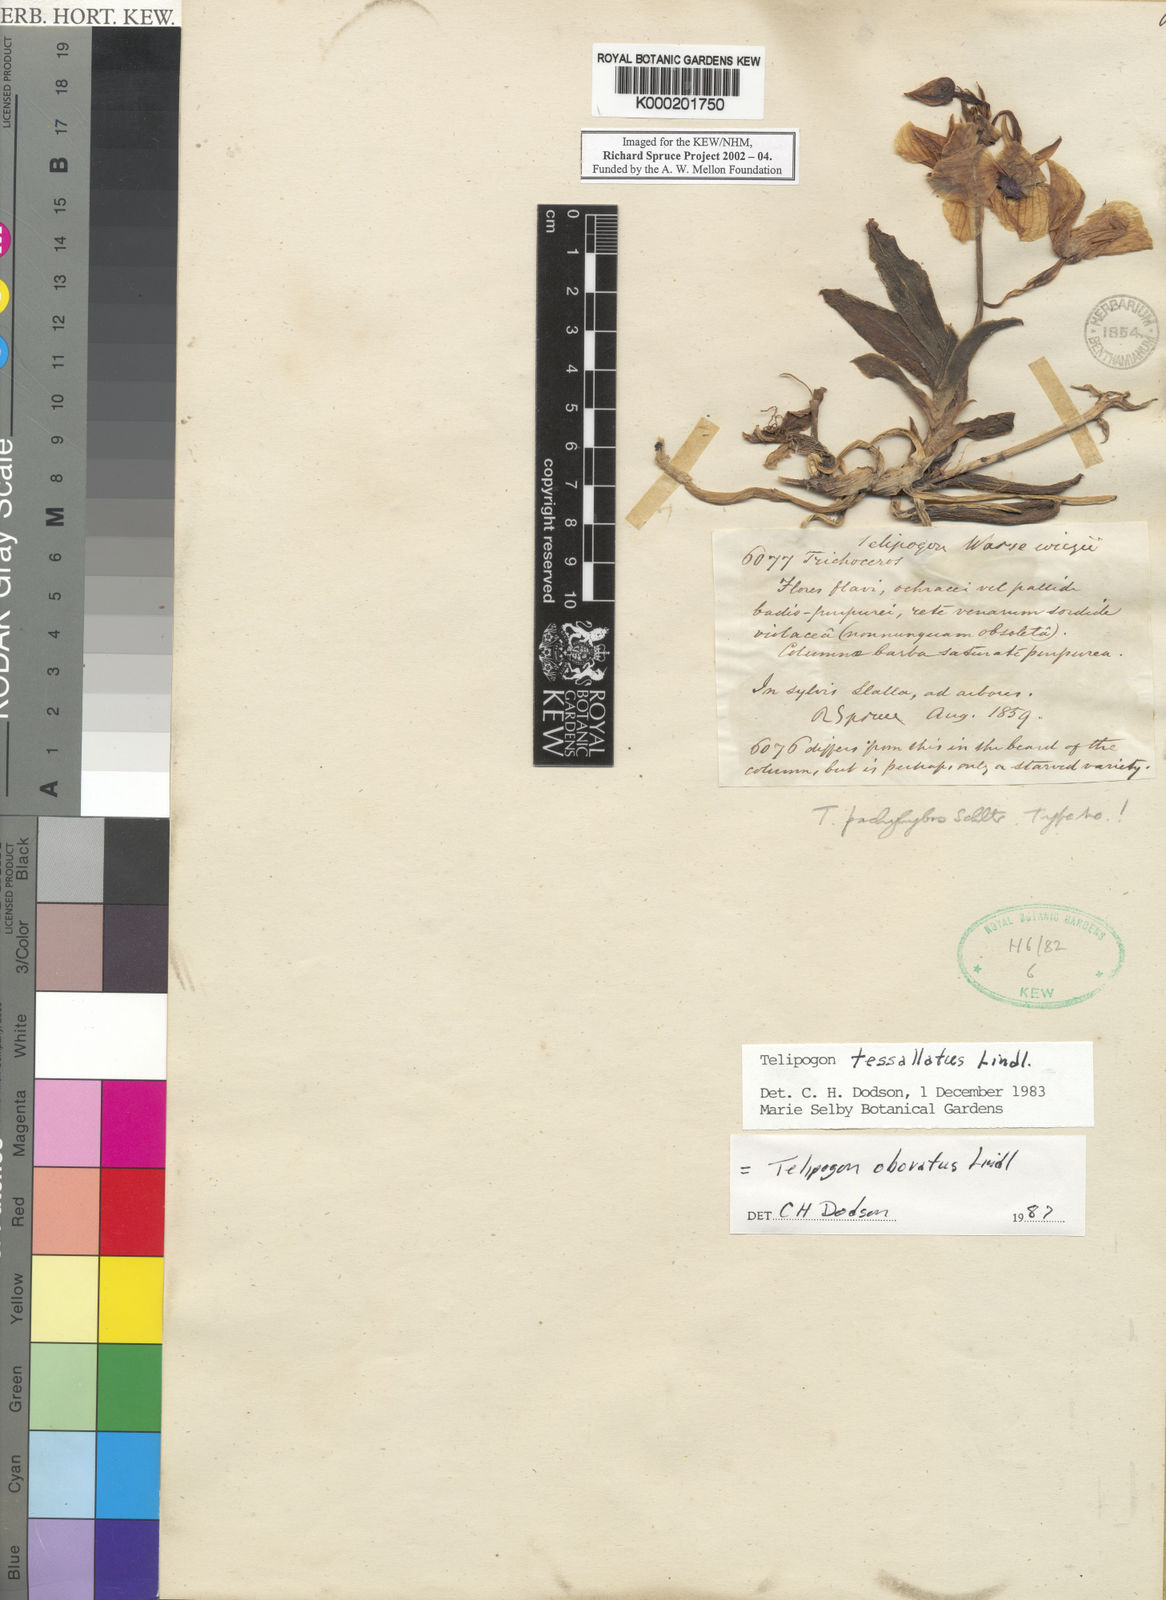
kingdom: Plantae
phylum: Tracheophyta
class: Liliopsida
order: Asparagales
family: Orchidaceae
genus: Telipogon
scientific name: Telipogon obovatus
